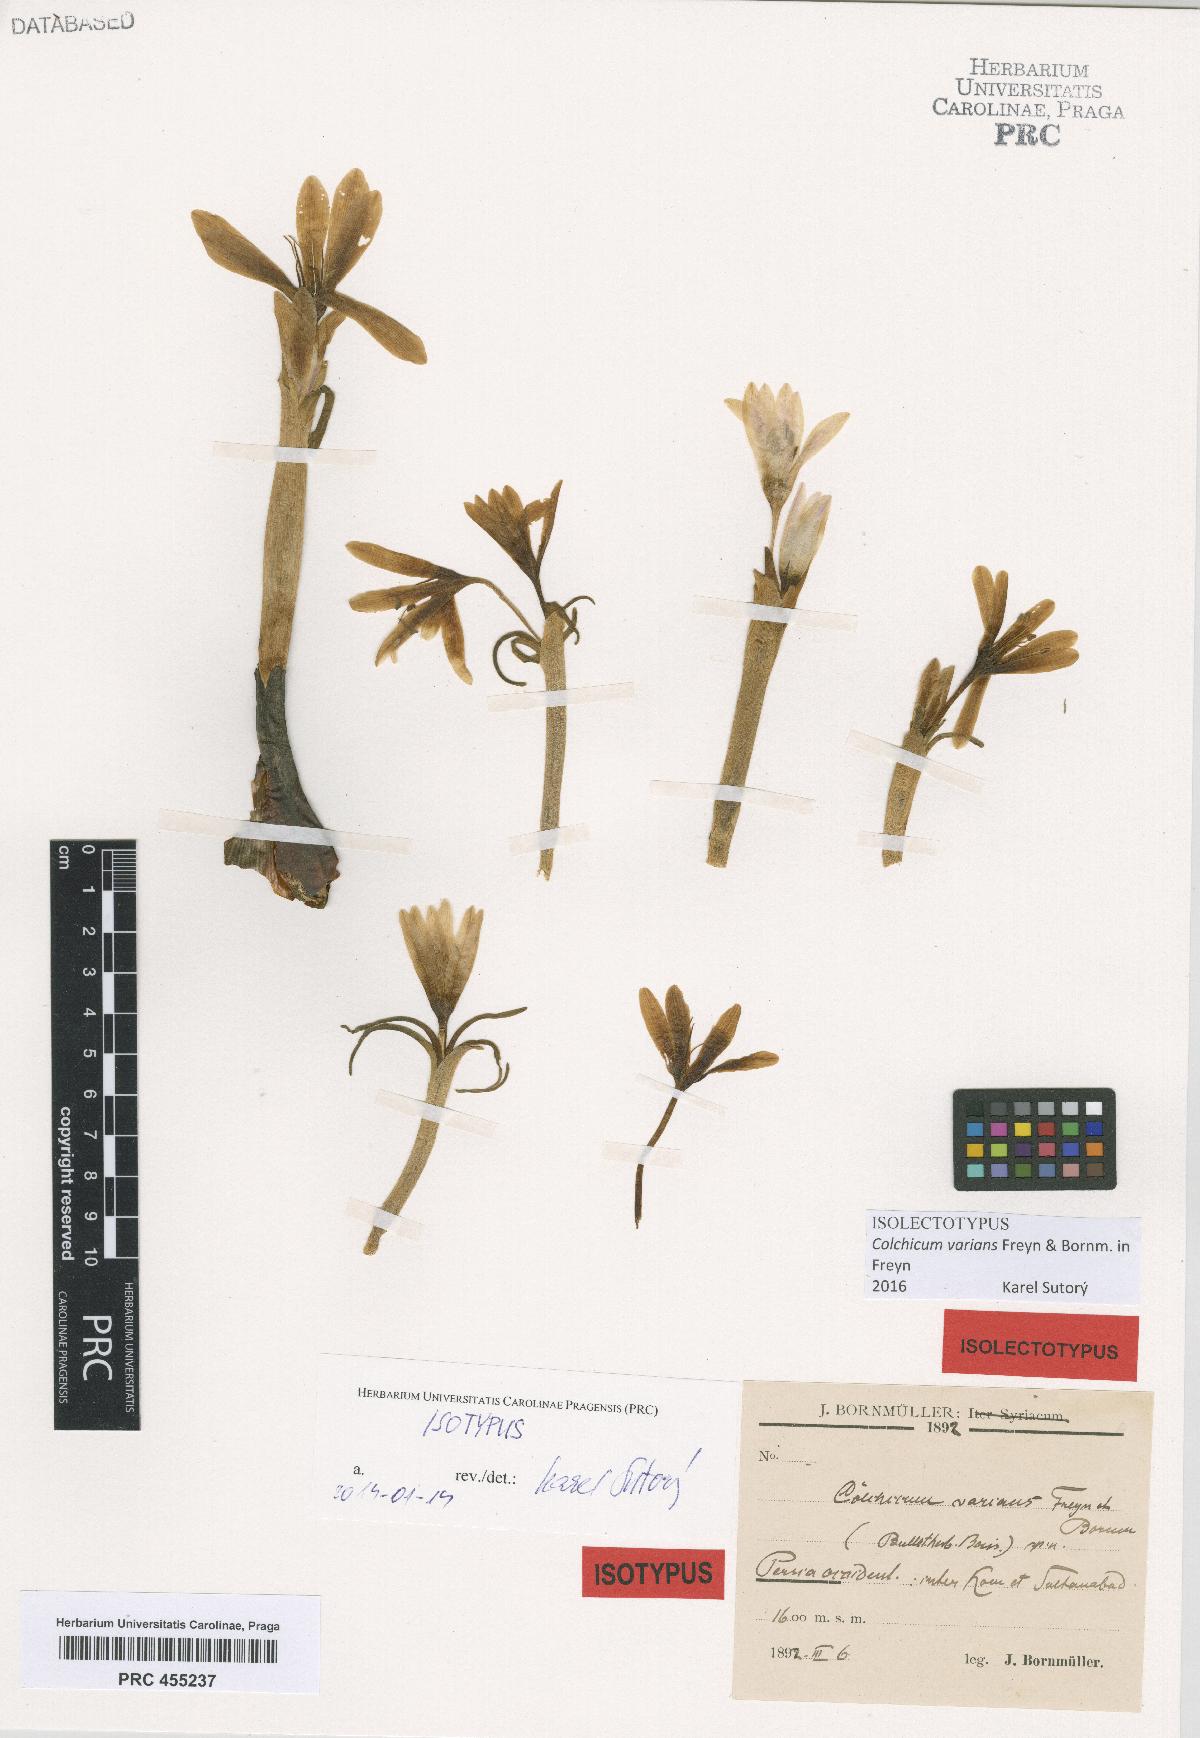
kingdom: Plantae
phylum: Tracheophyta
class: Liliopsida
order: Liliales
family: Colchicaceae
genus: Colchicum
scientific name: Colchicum varians
